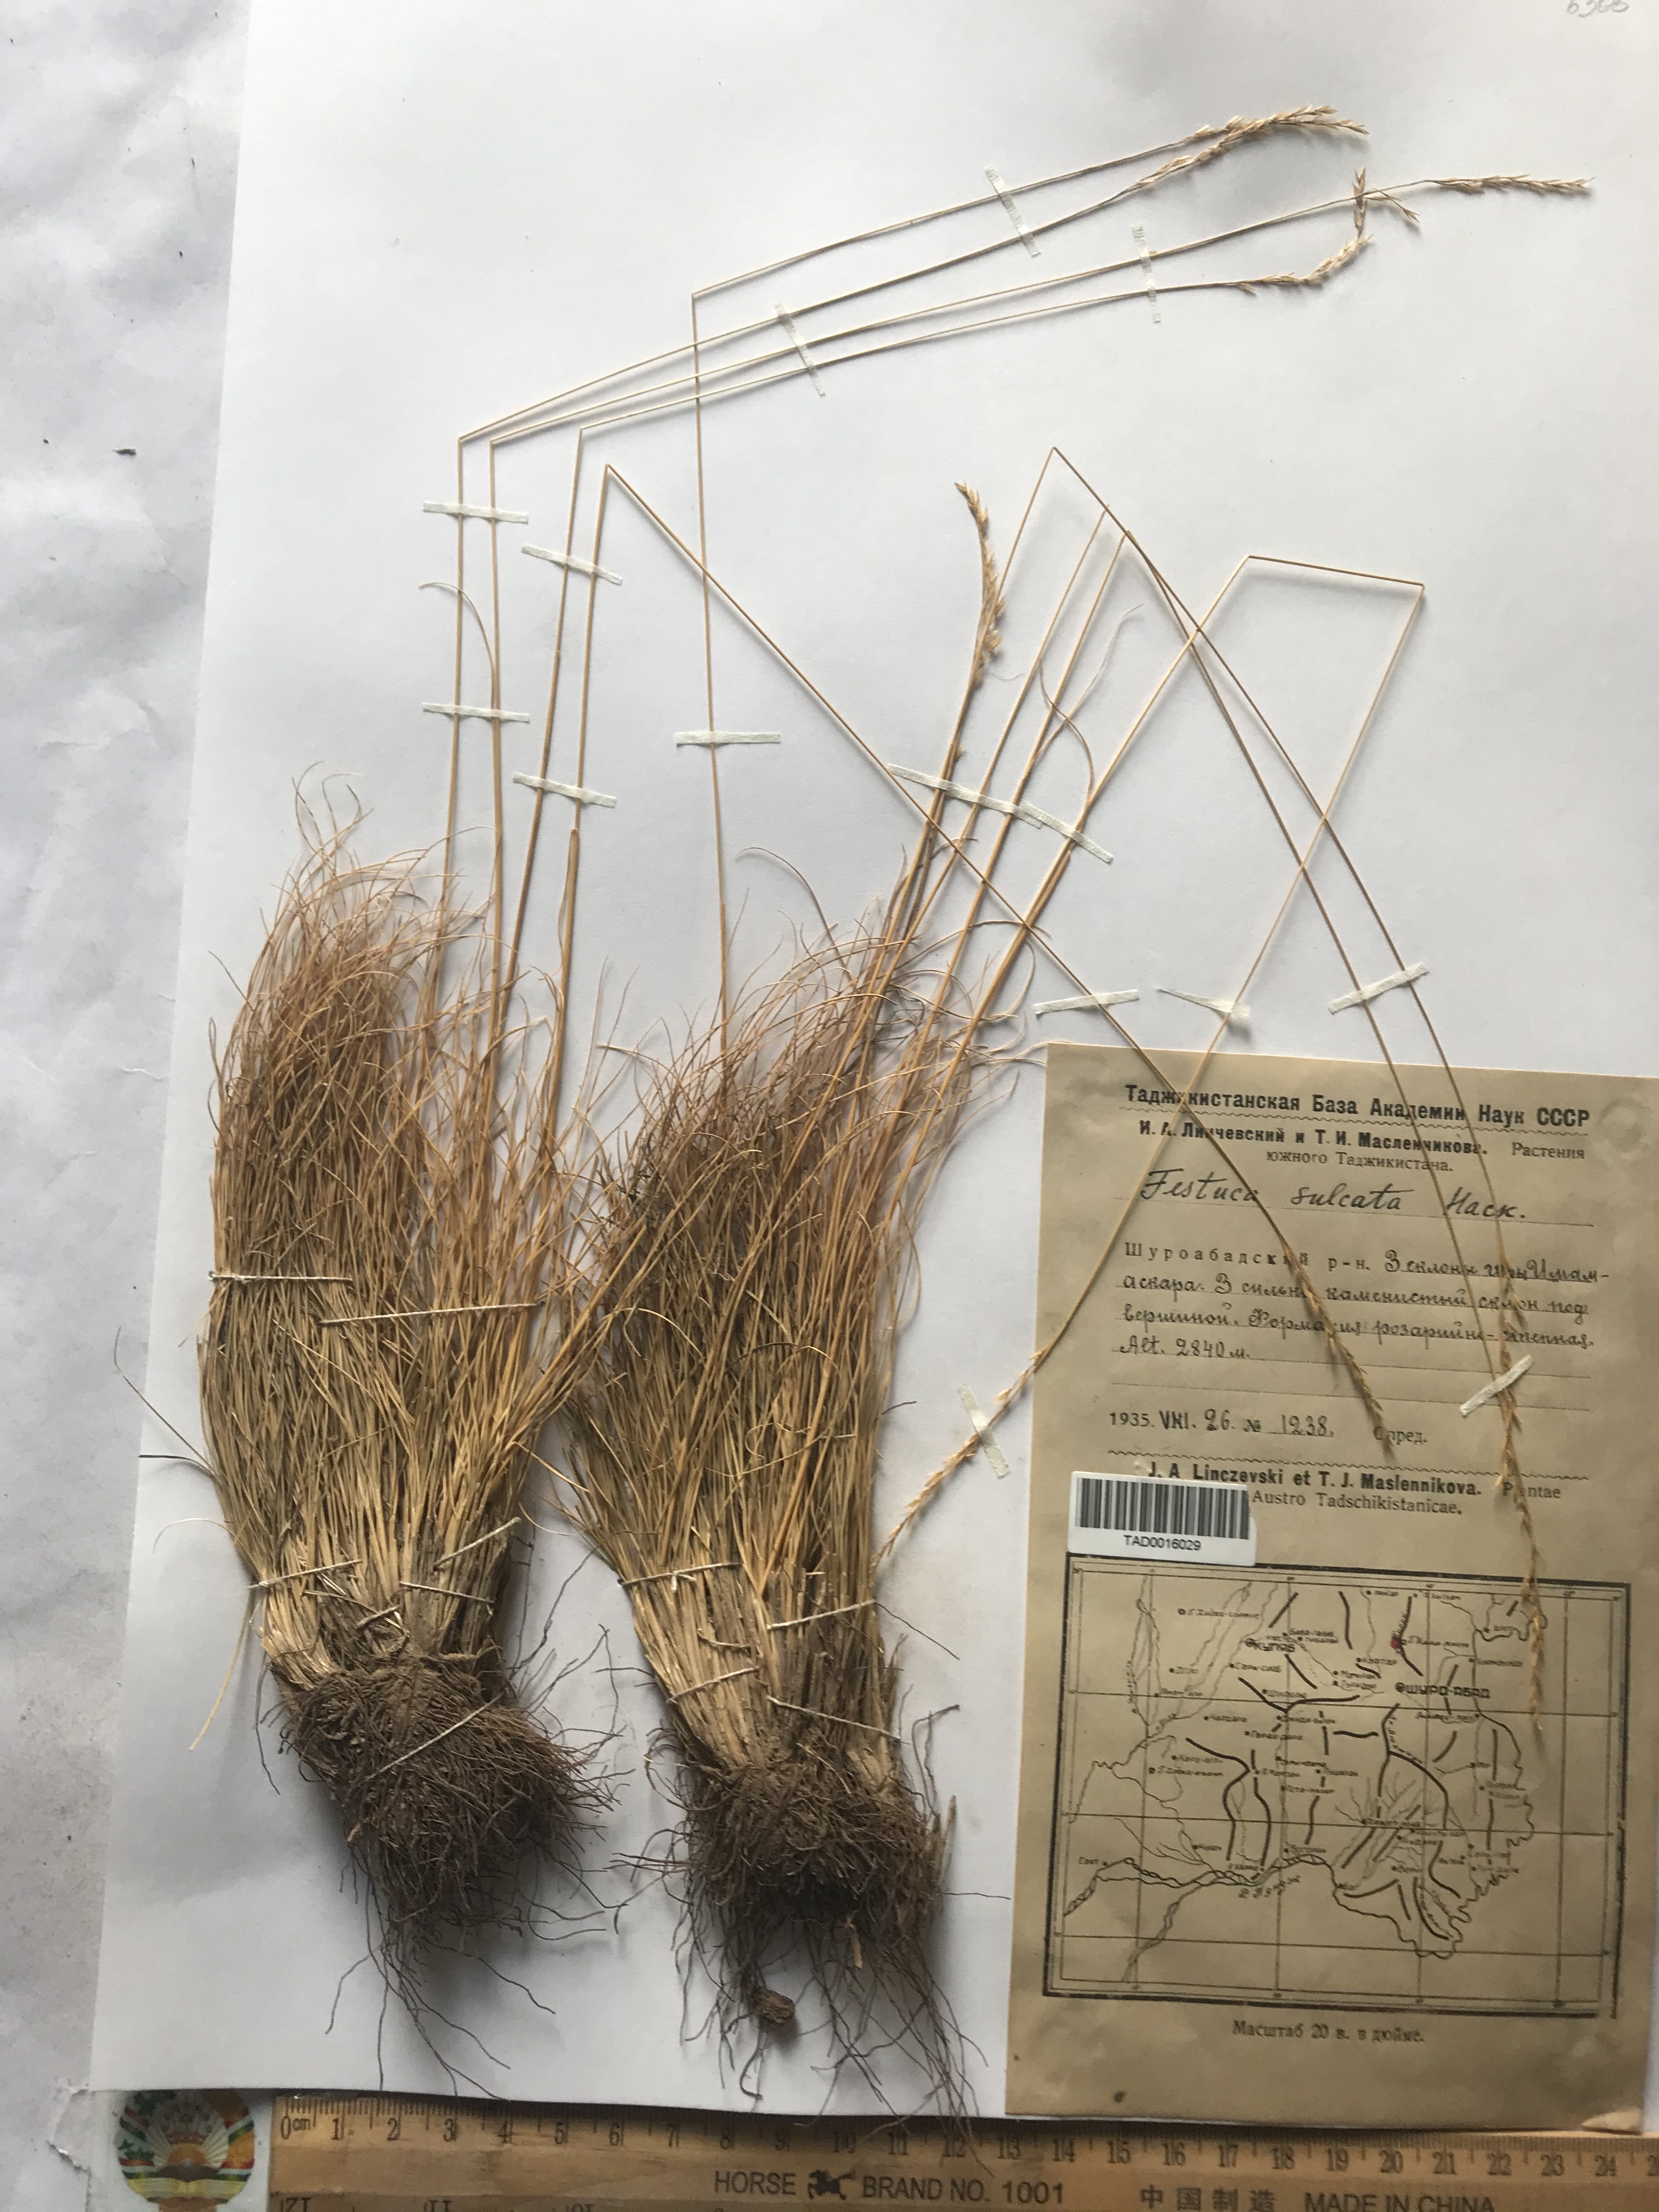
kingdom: Plantae
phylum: Tracheophyta
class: Liliopsida
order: Poales
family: Poaceae
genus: Festuca
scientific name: Festuca sulcata
